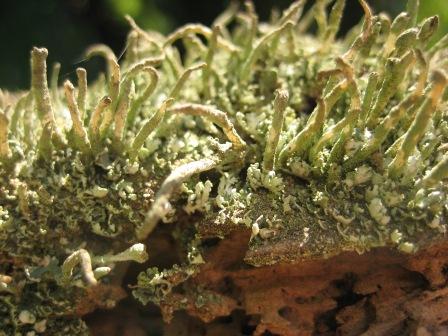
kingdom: Fungi
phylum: Ascomycota
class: Lecanoromycetes
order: Lecanorales
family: Cladoniaceae
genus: Cladonia
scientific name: Cladonia coniocraea
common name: træfods-bægerlav
